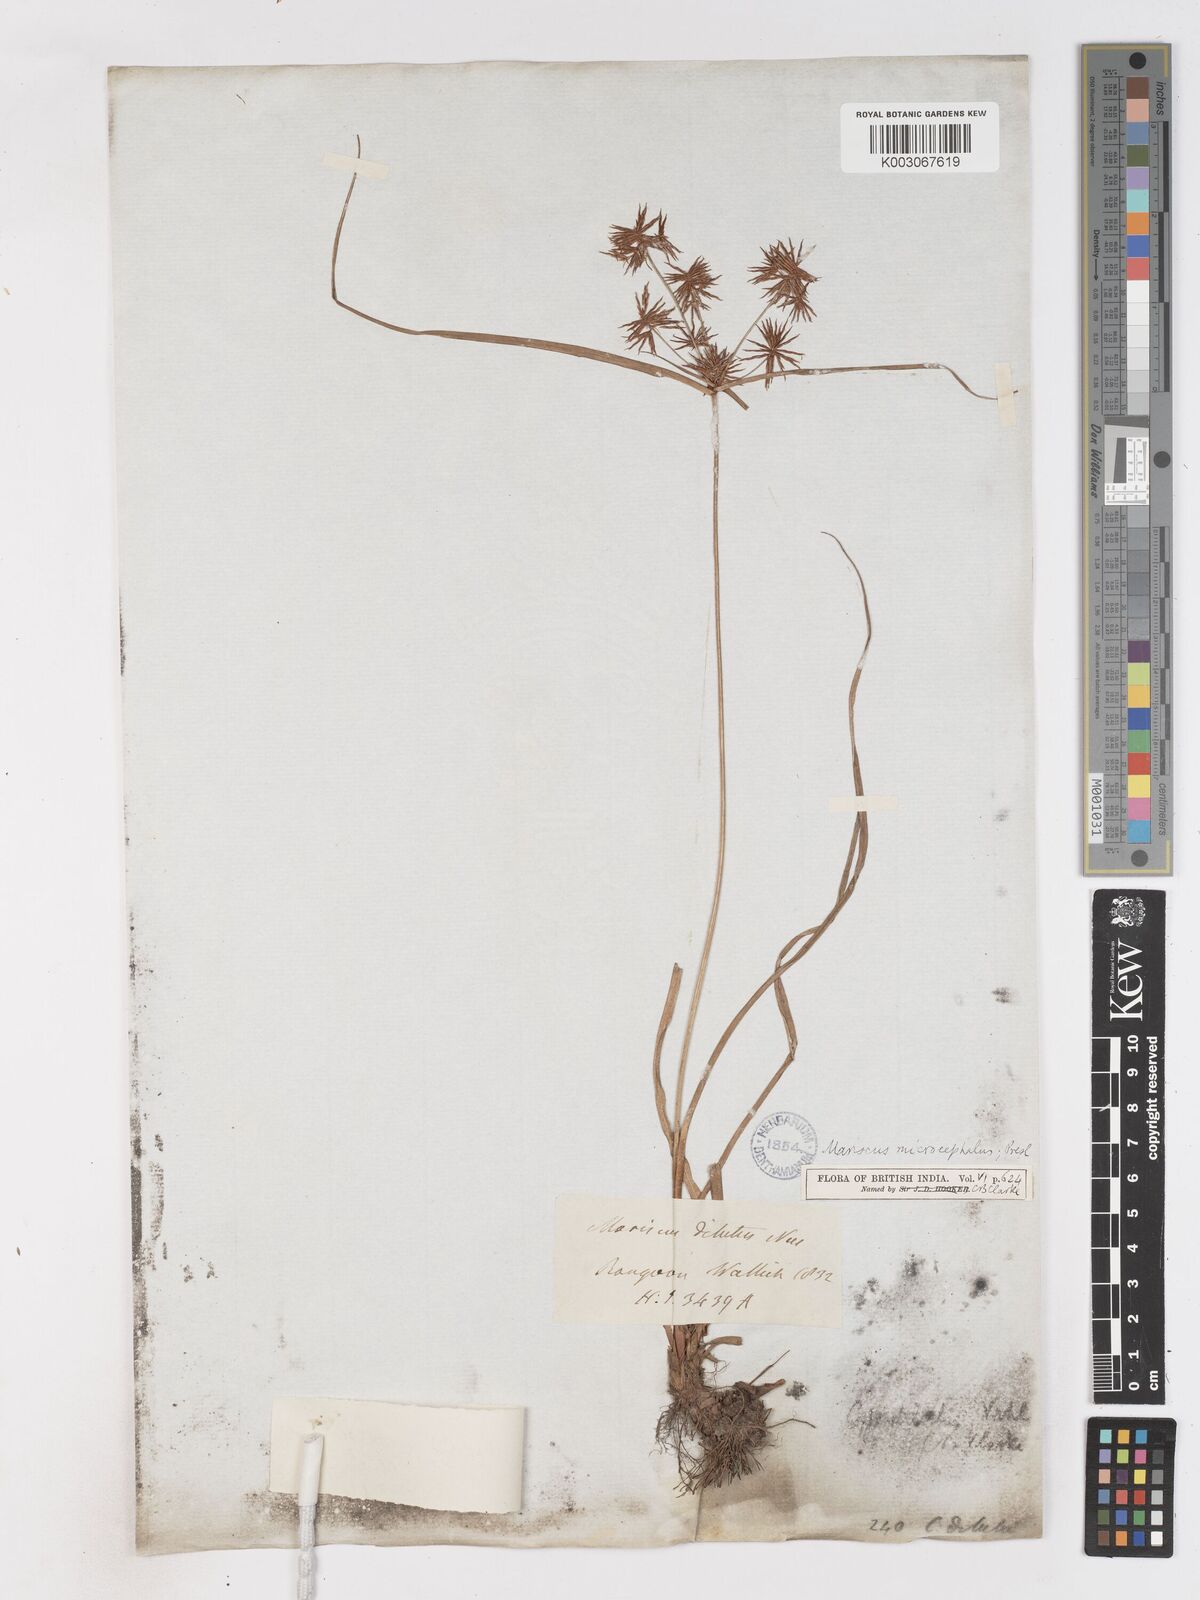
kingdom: Plantae
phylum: Tracheophyta
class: Liliopsida
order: Poales
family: Cyperaceae
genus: Cyperus
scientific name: Cyperus
